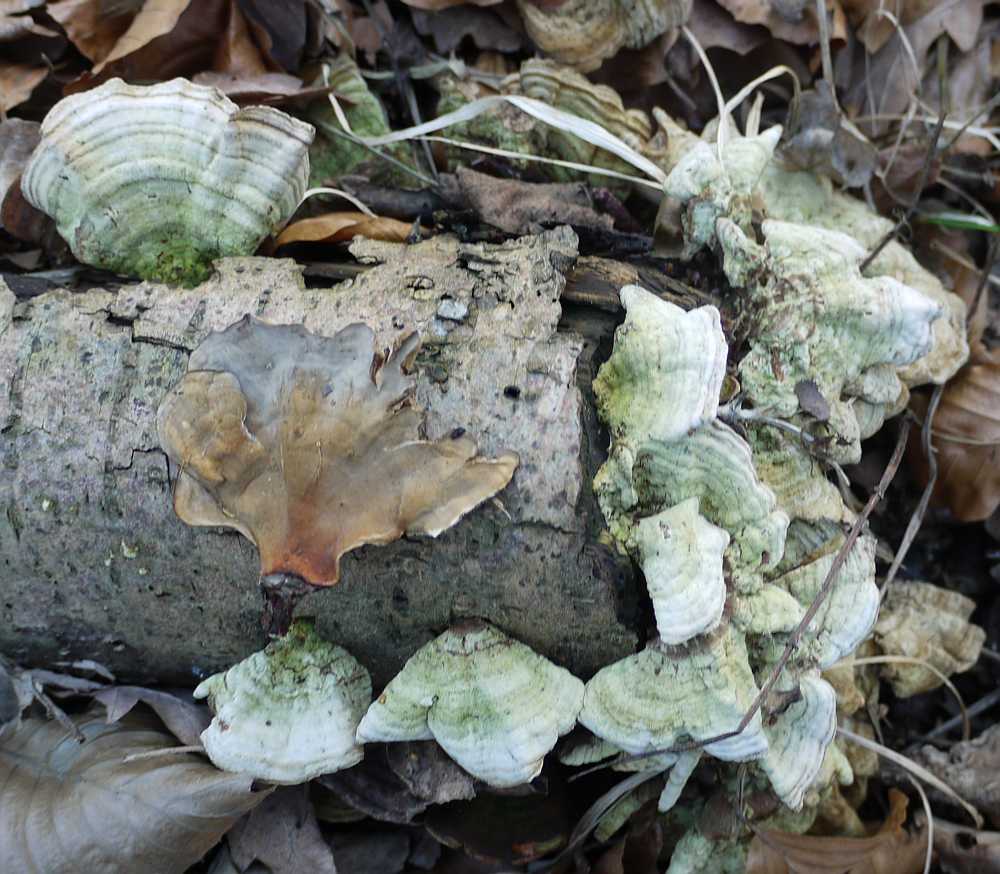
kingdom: Fungi
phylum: Basidiomycota
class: Agaricomycetes
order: Russulales
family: Stereaceae
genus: Stereum
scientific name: Stereum subtomentosum
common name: smuk lædersvamp
